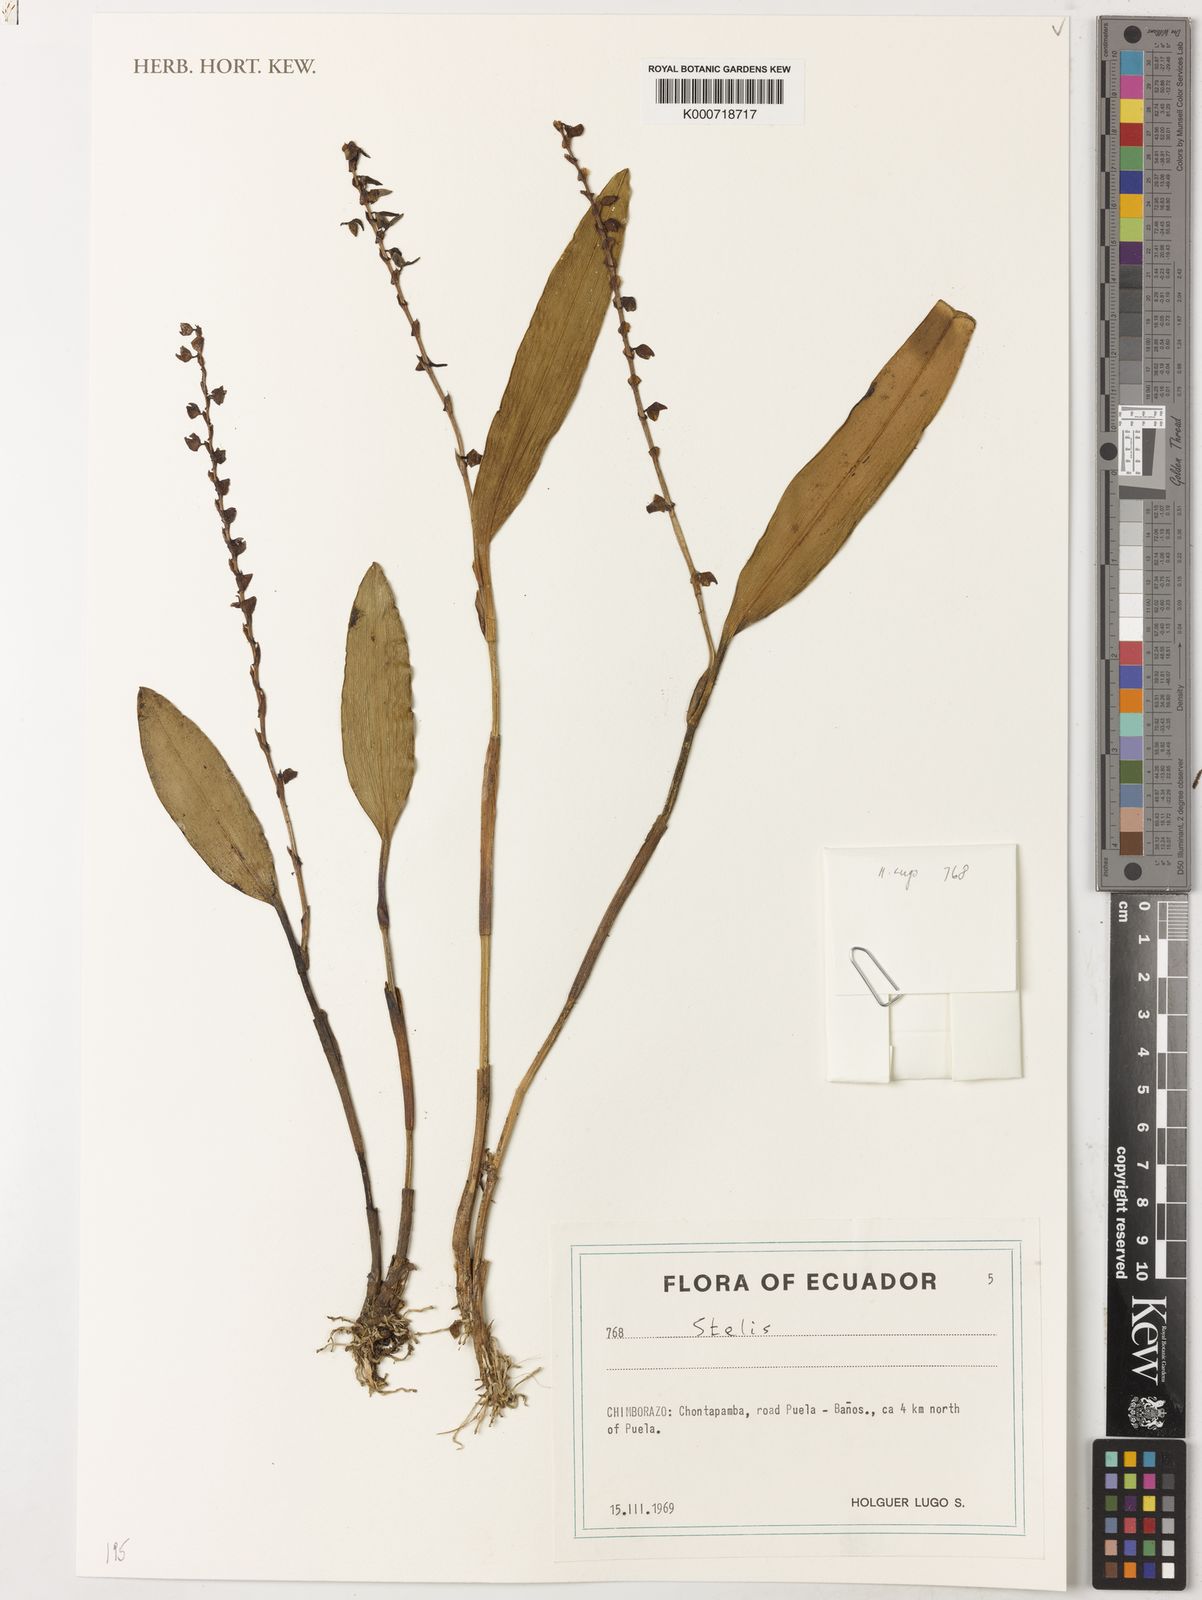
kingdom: Plantae
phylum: Tracheophyta
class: Liliopsida
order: Asparagales
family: Orchidaceae
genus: Stelis
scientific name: Stelis
